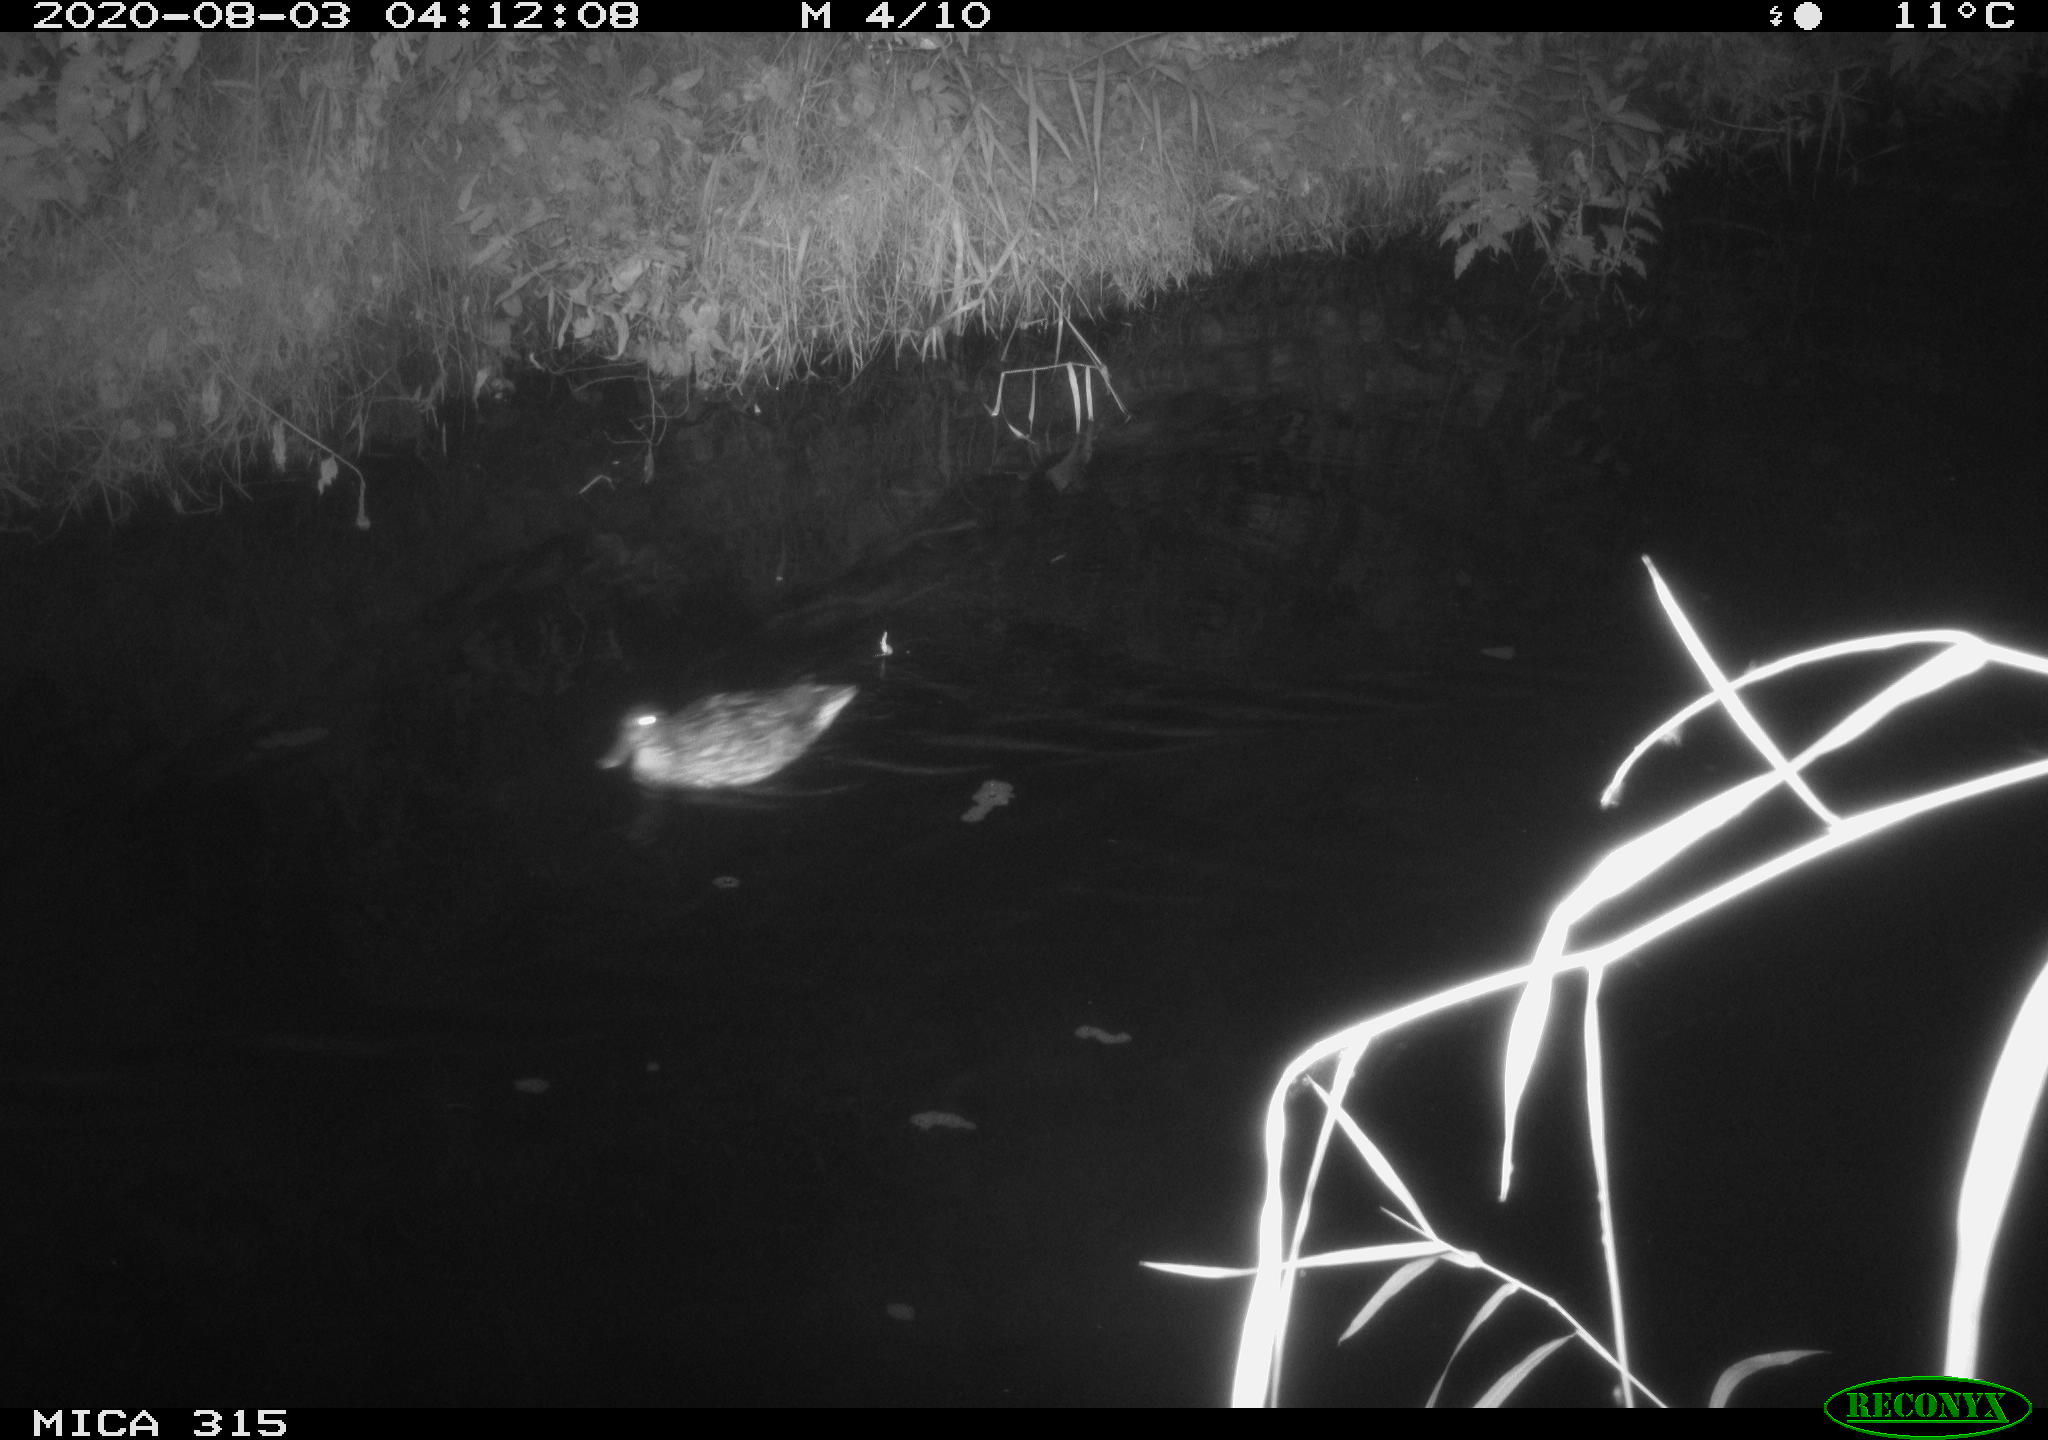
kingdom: Animalia
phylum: Chordata
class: Aves
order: Anseriformes
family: Anatidae
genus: Anas
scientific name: Anas platyrhynchos
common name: Mallard
